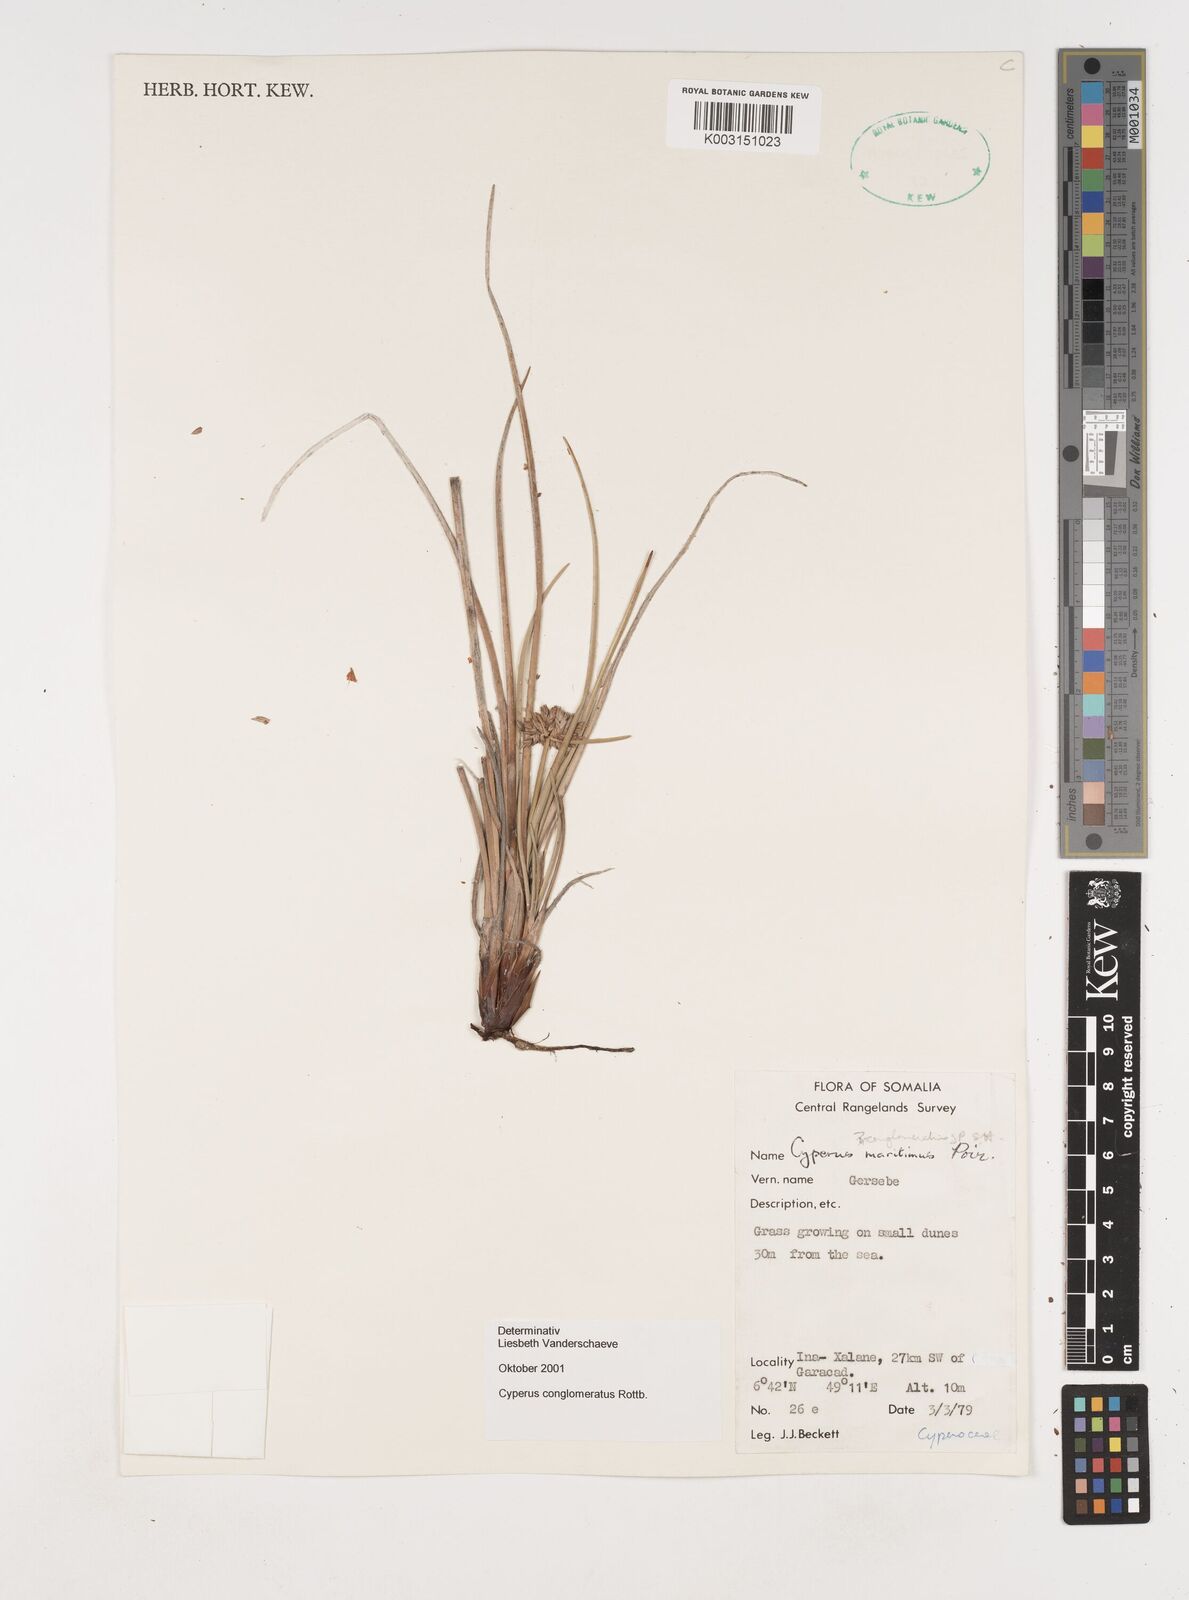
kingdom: Plantae
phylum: Tracheophyta
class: Liliopsida
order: Poales
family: Cyperaceae
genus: Cyperus
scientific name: Cyperus conglomeratus
